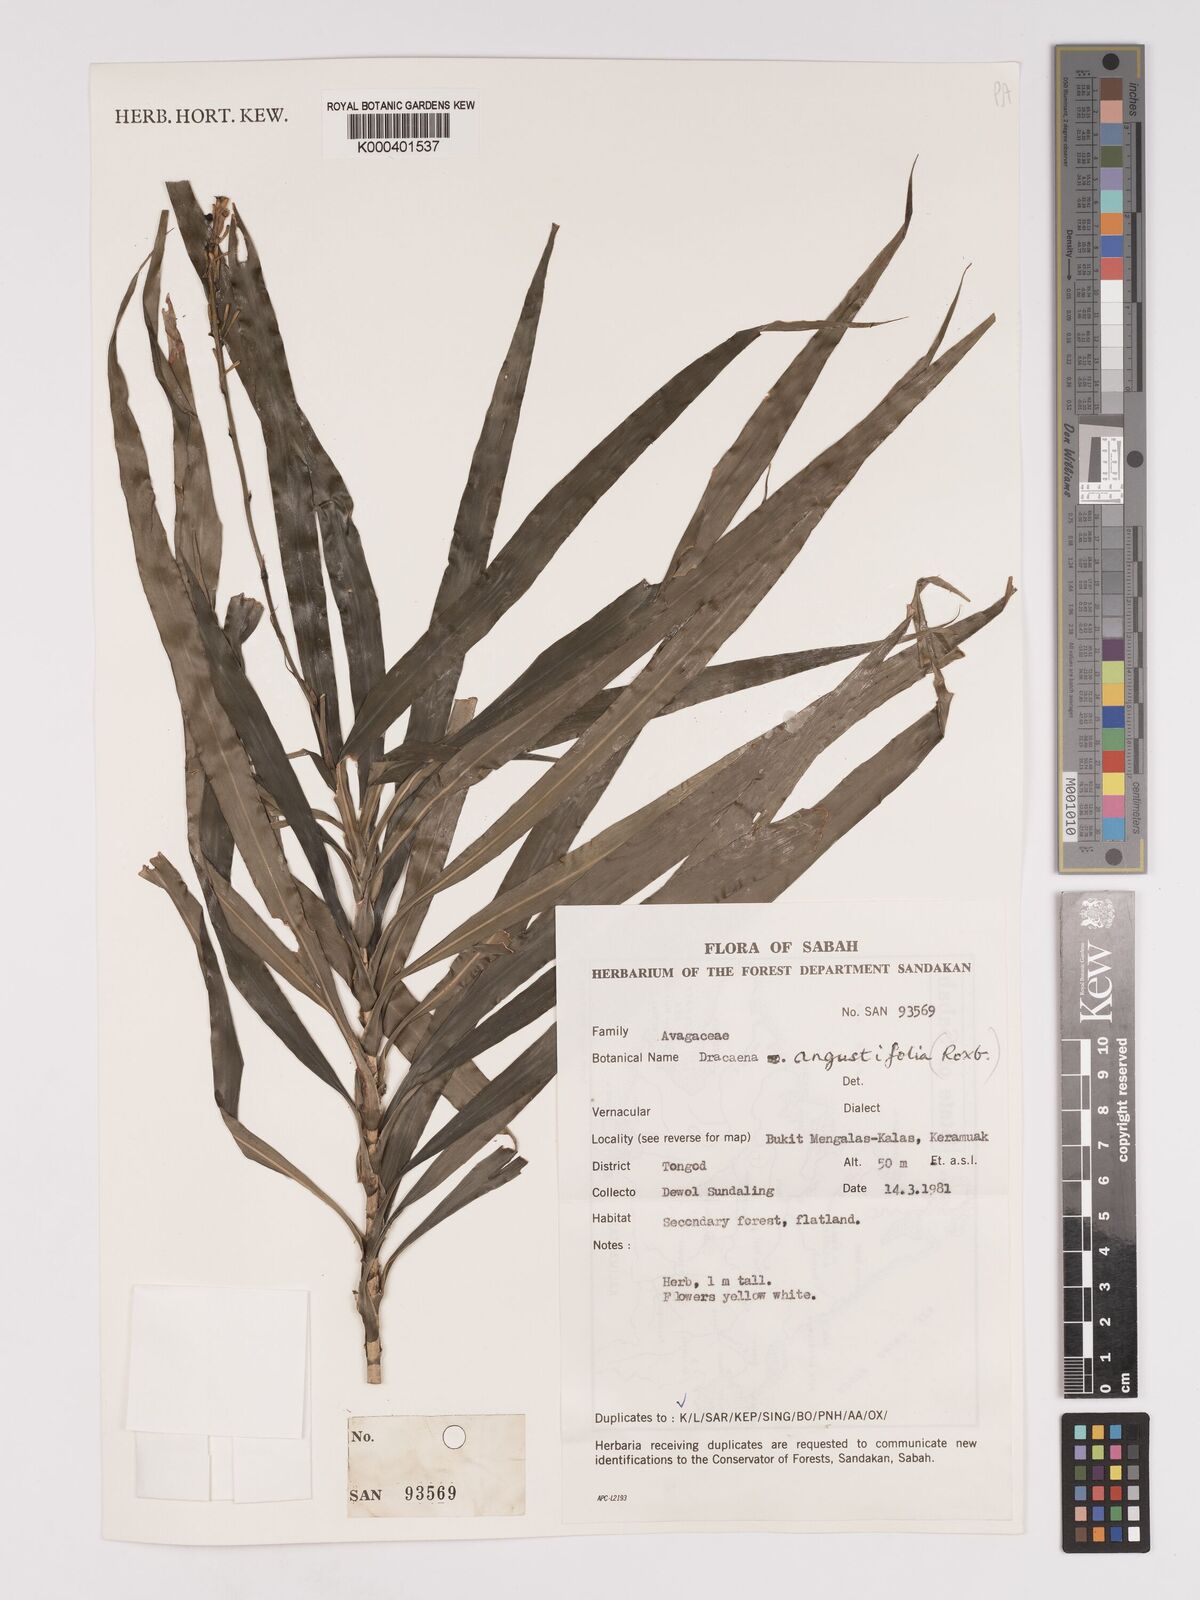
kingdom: Plantae
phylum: Tracheophyta
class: Liliopsida
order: Asparagales
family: Asparagaceae
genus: Dracaena
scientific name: Dracaena angustifolia
